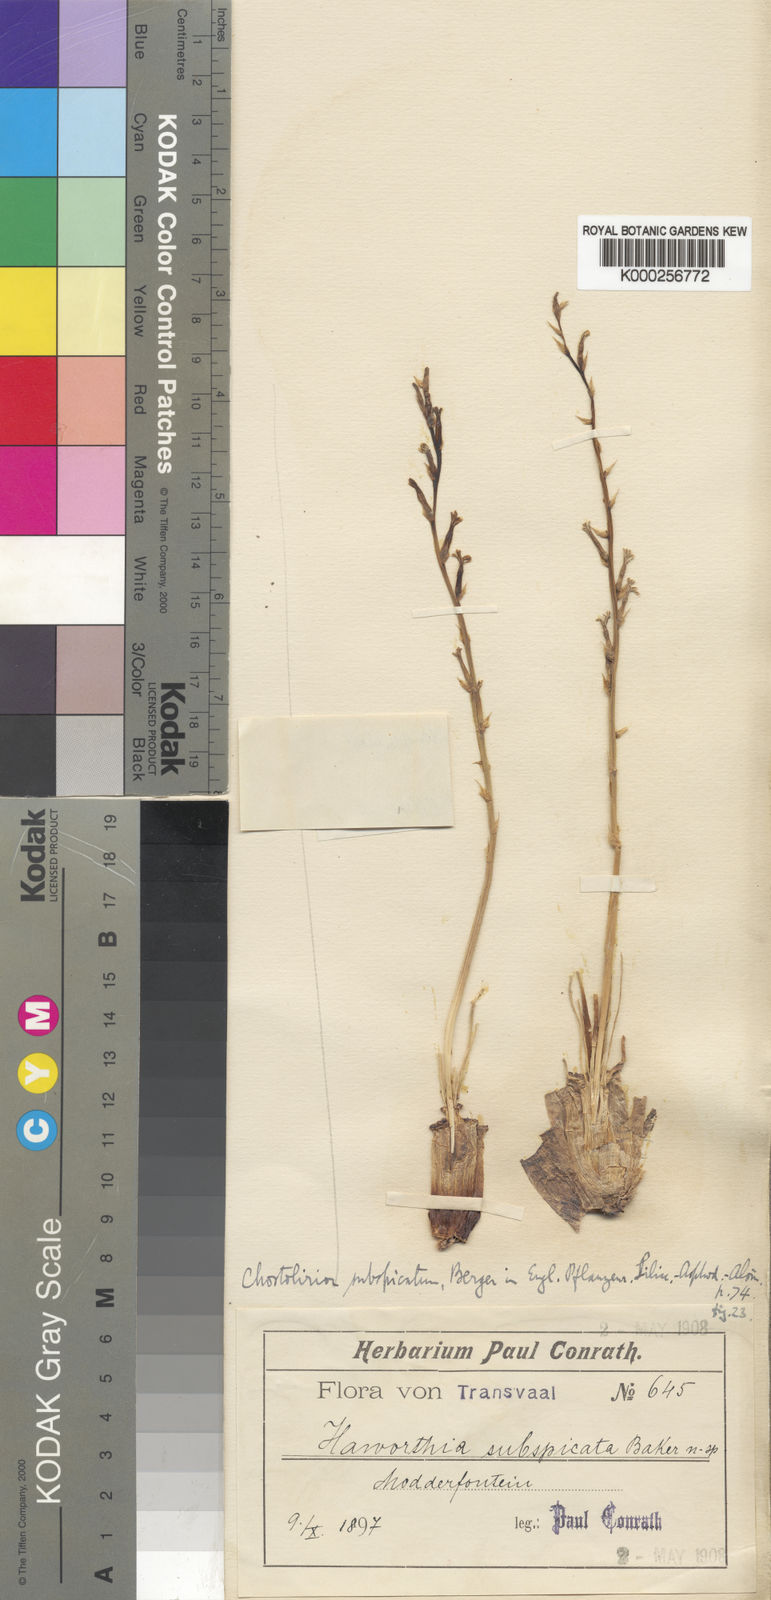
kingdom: Plantae
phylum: Tracheophyta
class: Liliopsida
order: Asparagales
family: Asphodelaceae
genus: Aloe
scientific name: Aloe welwitschii
